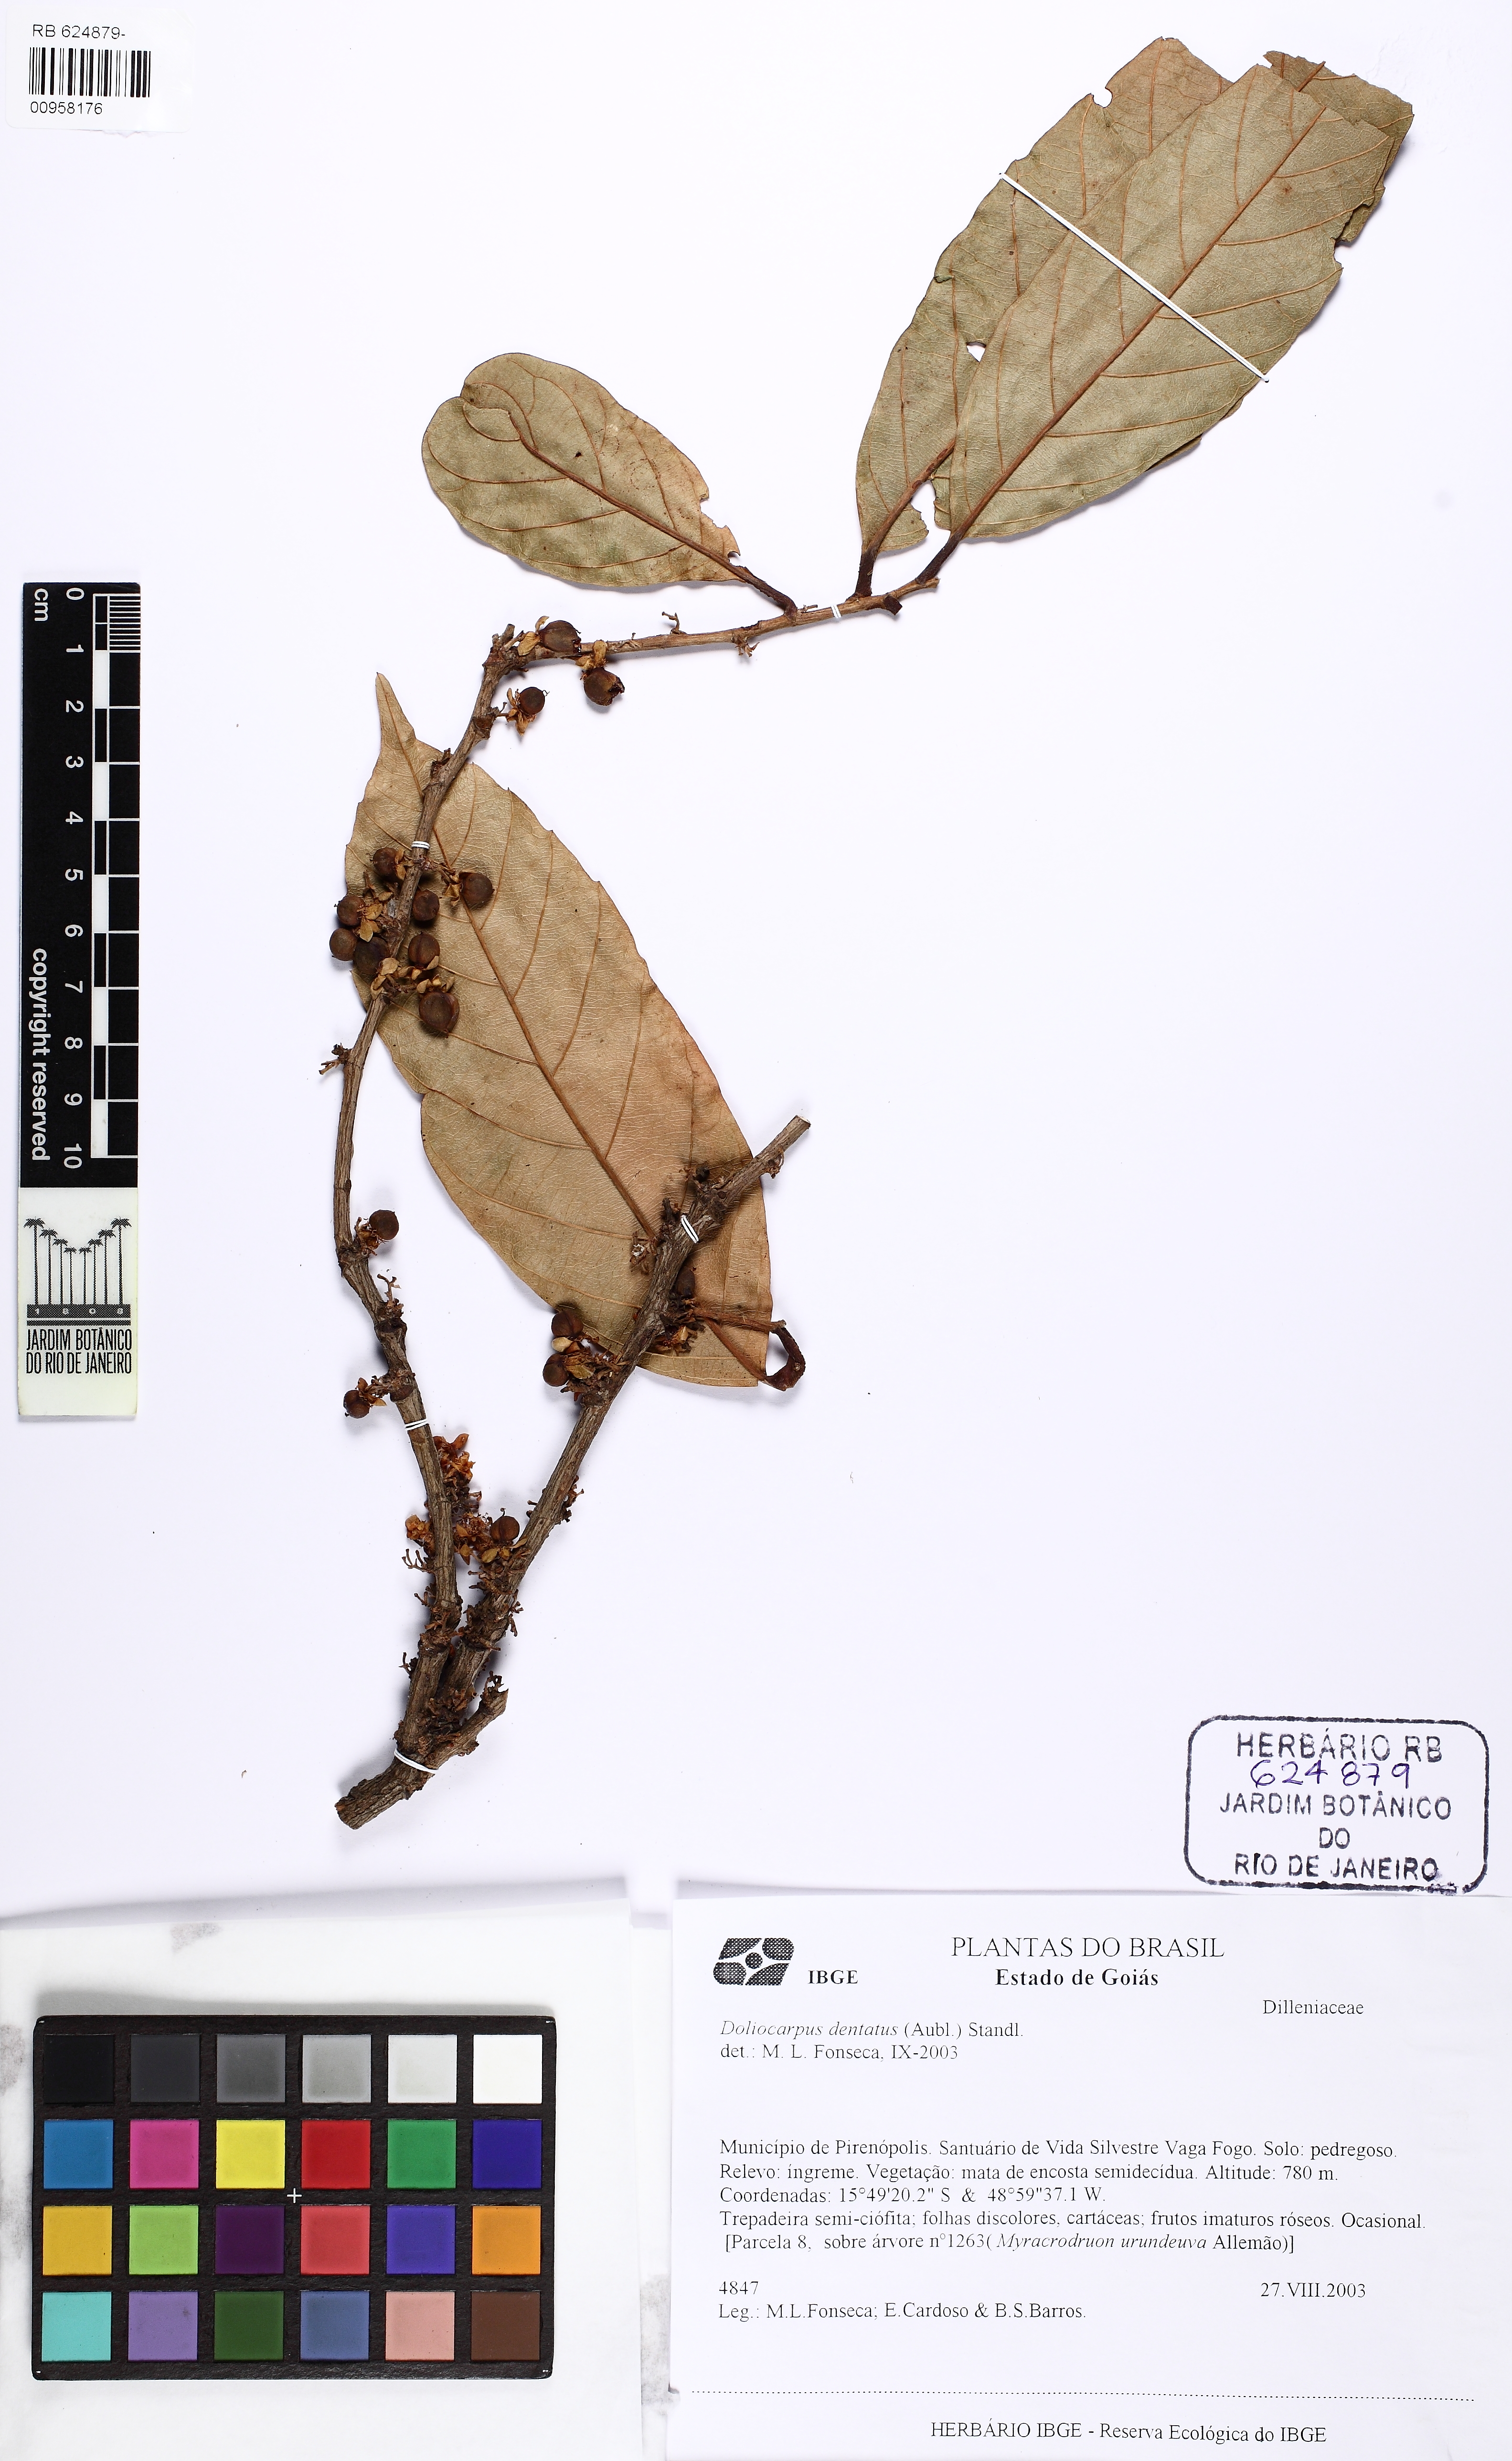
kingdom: Plantae
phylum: Tracheophyta
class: Magnoliopsida
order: Dilleniales
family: Dilleniaceae
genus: Doliocarpus
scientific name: Doliocarpus brevipedicellatus
